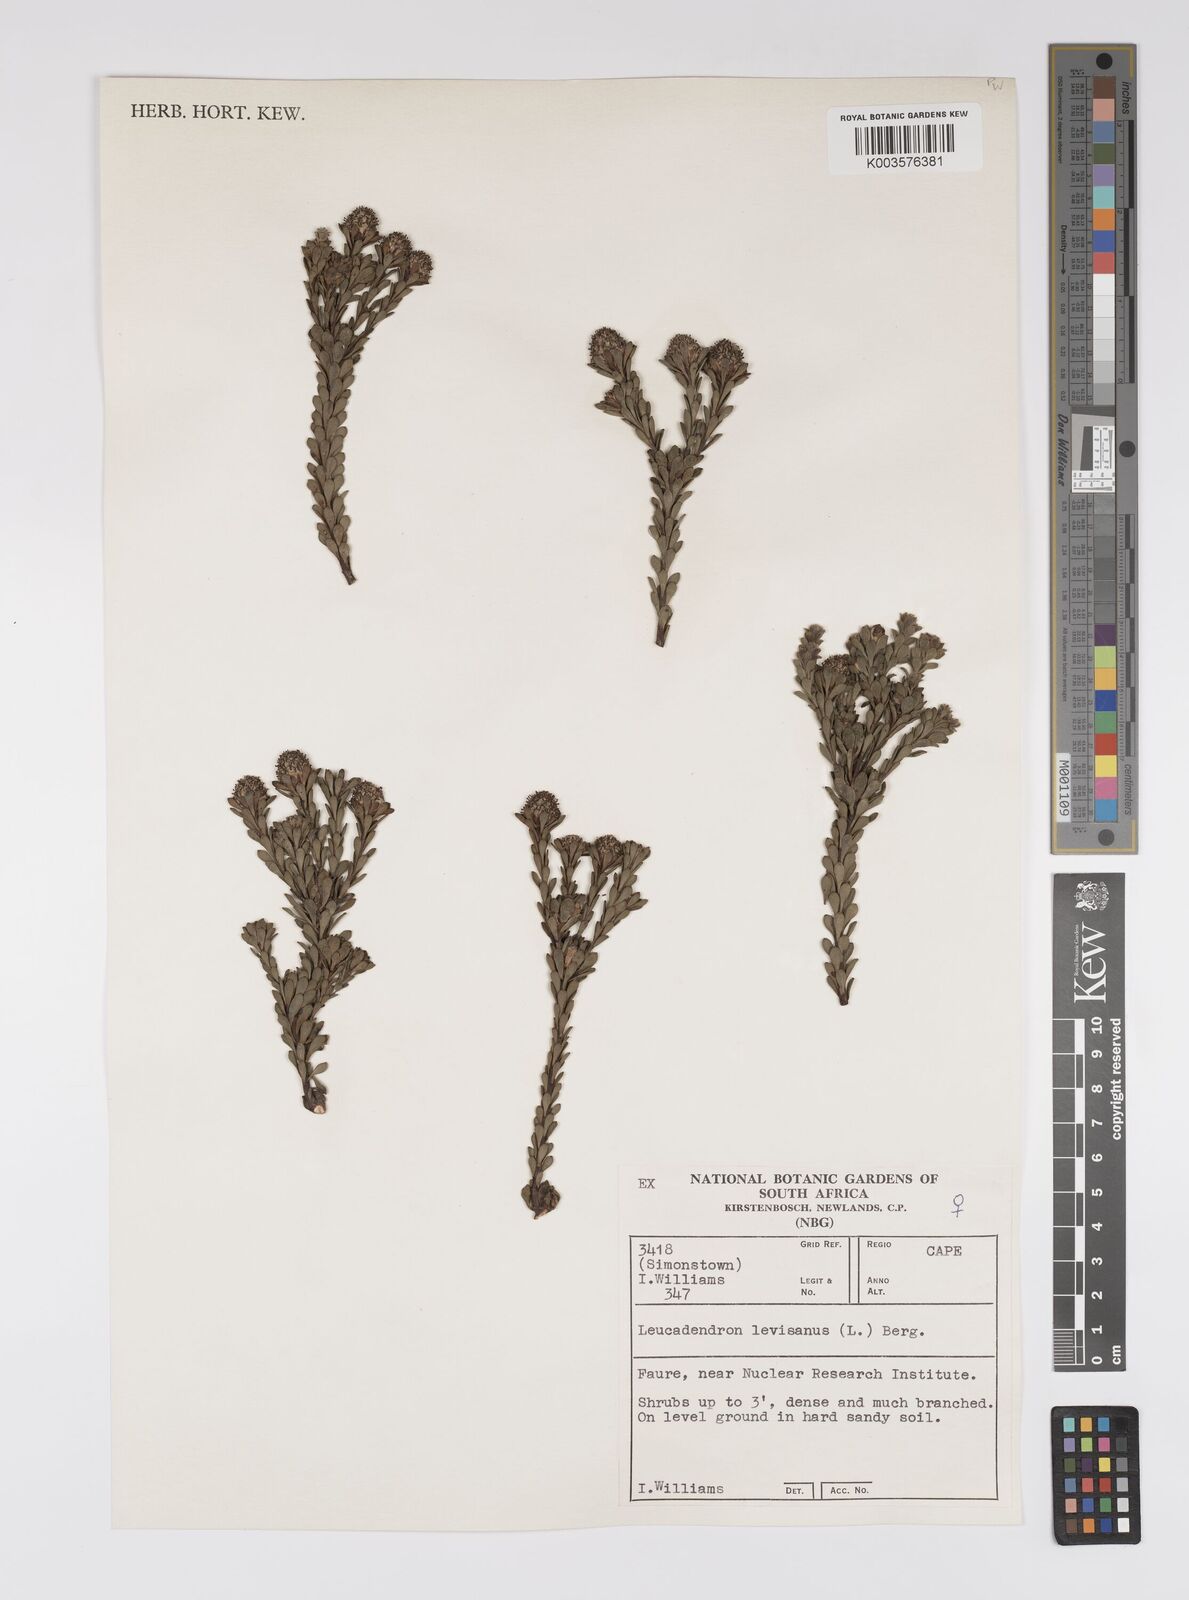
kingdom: Plantae
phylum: Tracheophyta
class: Magnoliopsida
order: Proteales
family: Proteaceae
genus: Leucadendron
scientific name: Leucadendron levisanus
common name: Cape flats conebush
